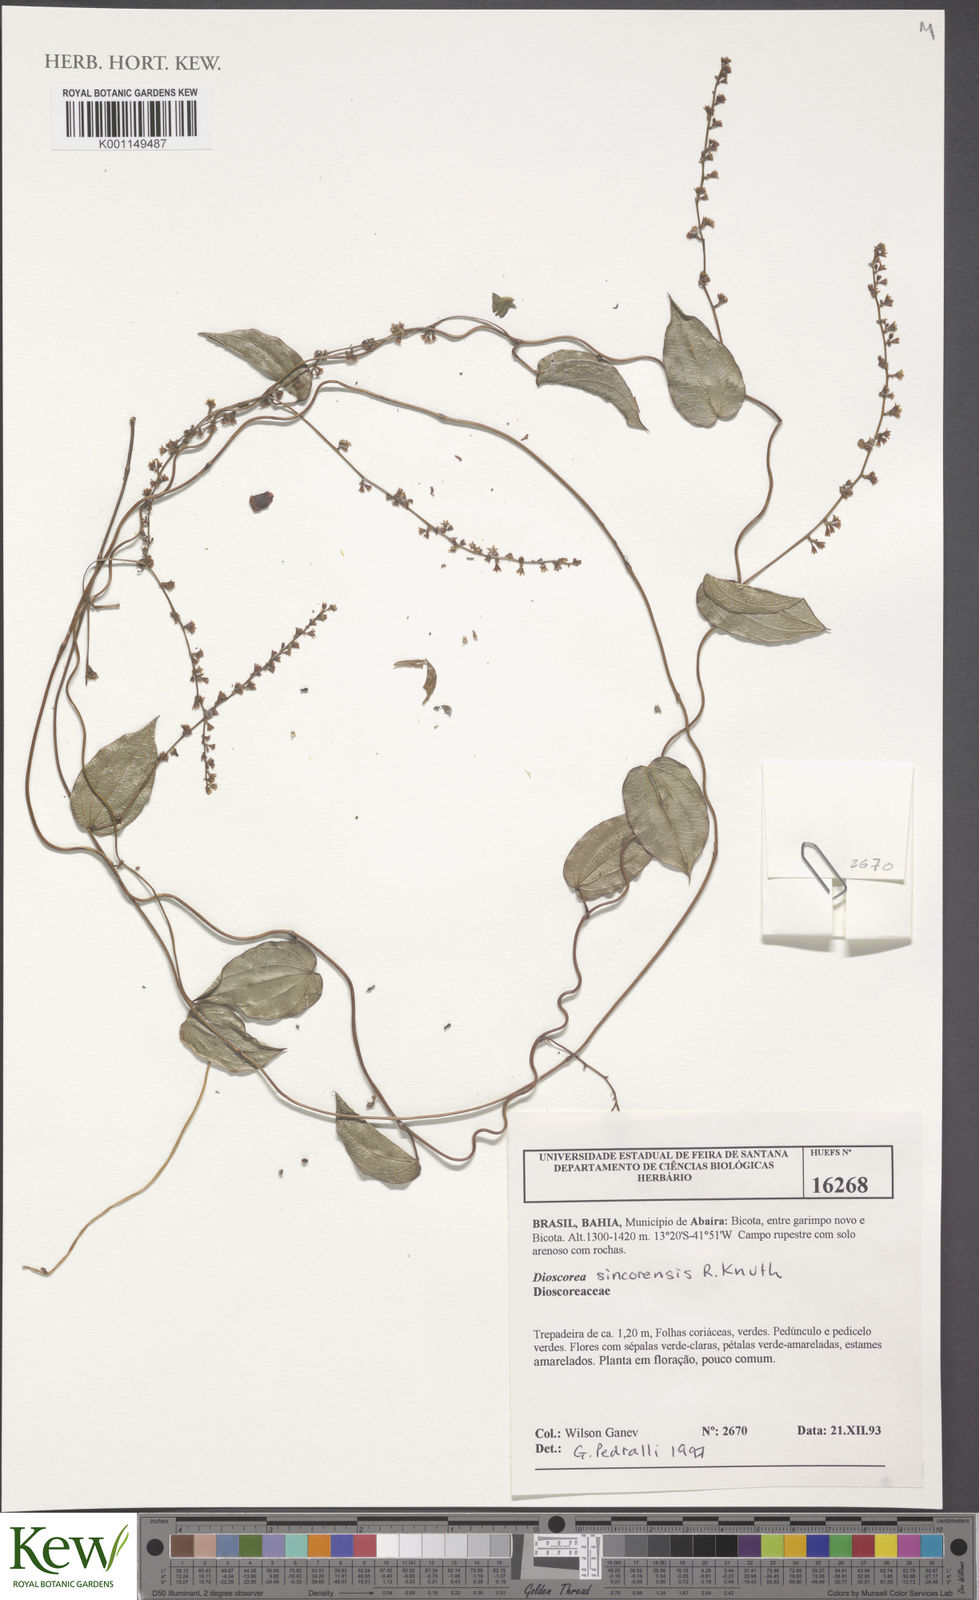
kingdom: Plantae
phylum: Tracheophyta
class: Liliopsida
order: Dioscoreales
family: Dioscoreaceae
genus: Dioscorea
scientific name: Dioscorea sincorensis
